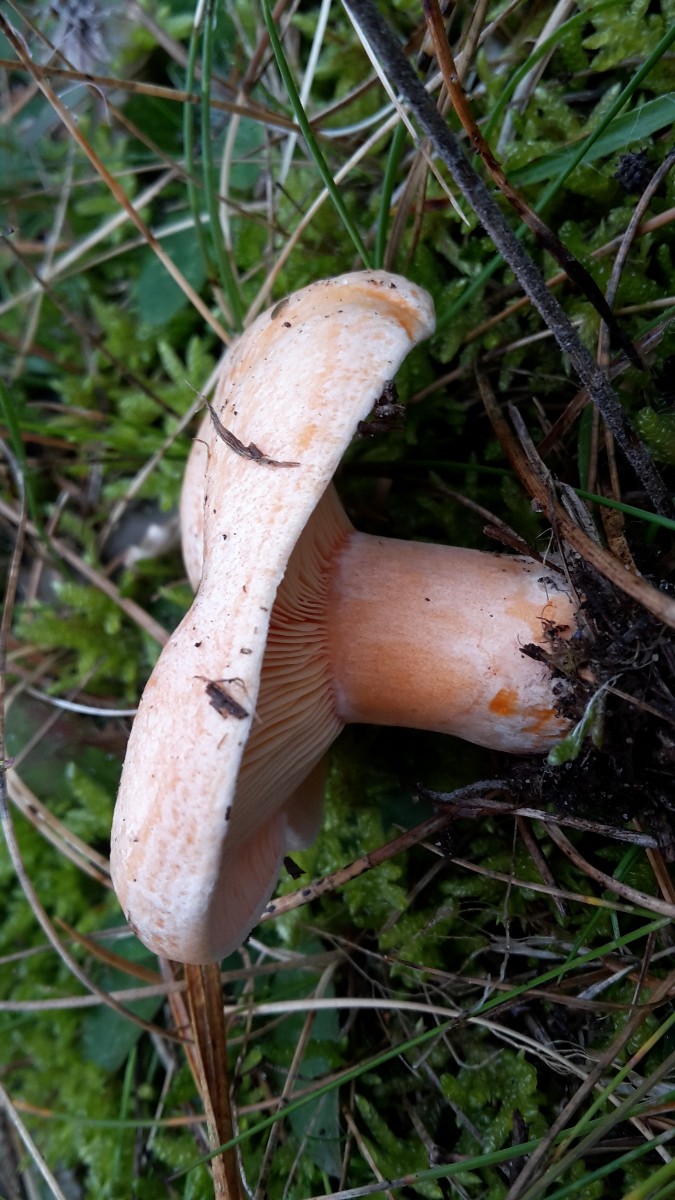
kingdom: Fungi
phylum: Basidiomycota
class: Agaricomycetes
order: Russulales
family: Russulaceae
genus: Lactarius
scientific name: Lactarius deliciosus
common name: velsmagende mælkehat
